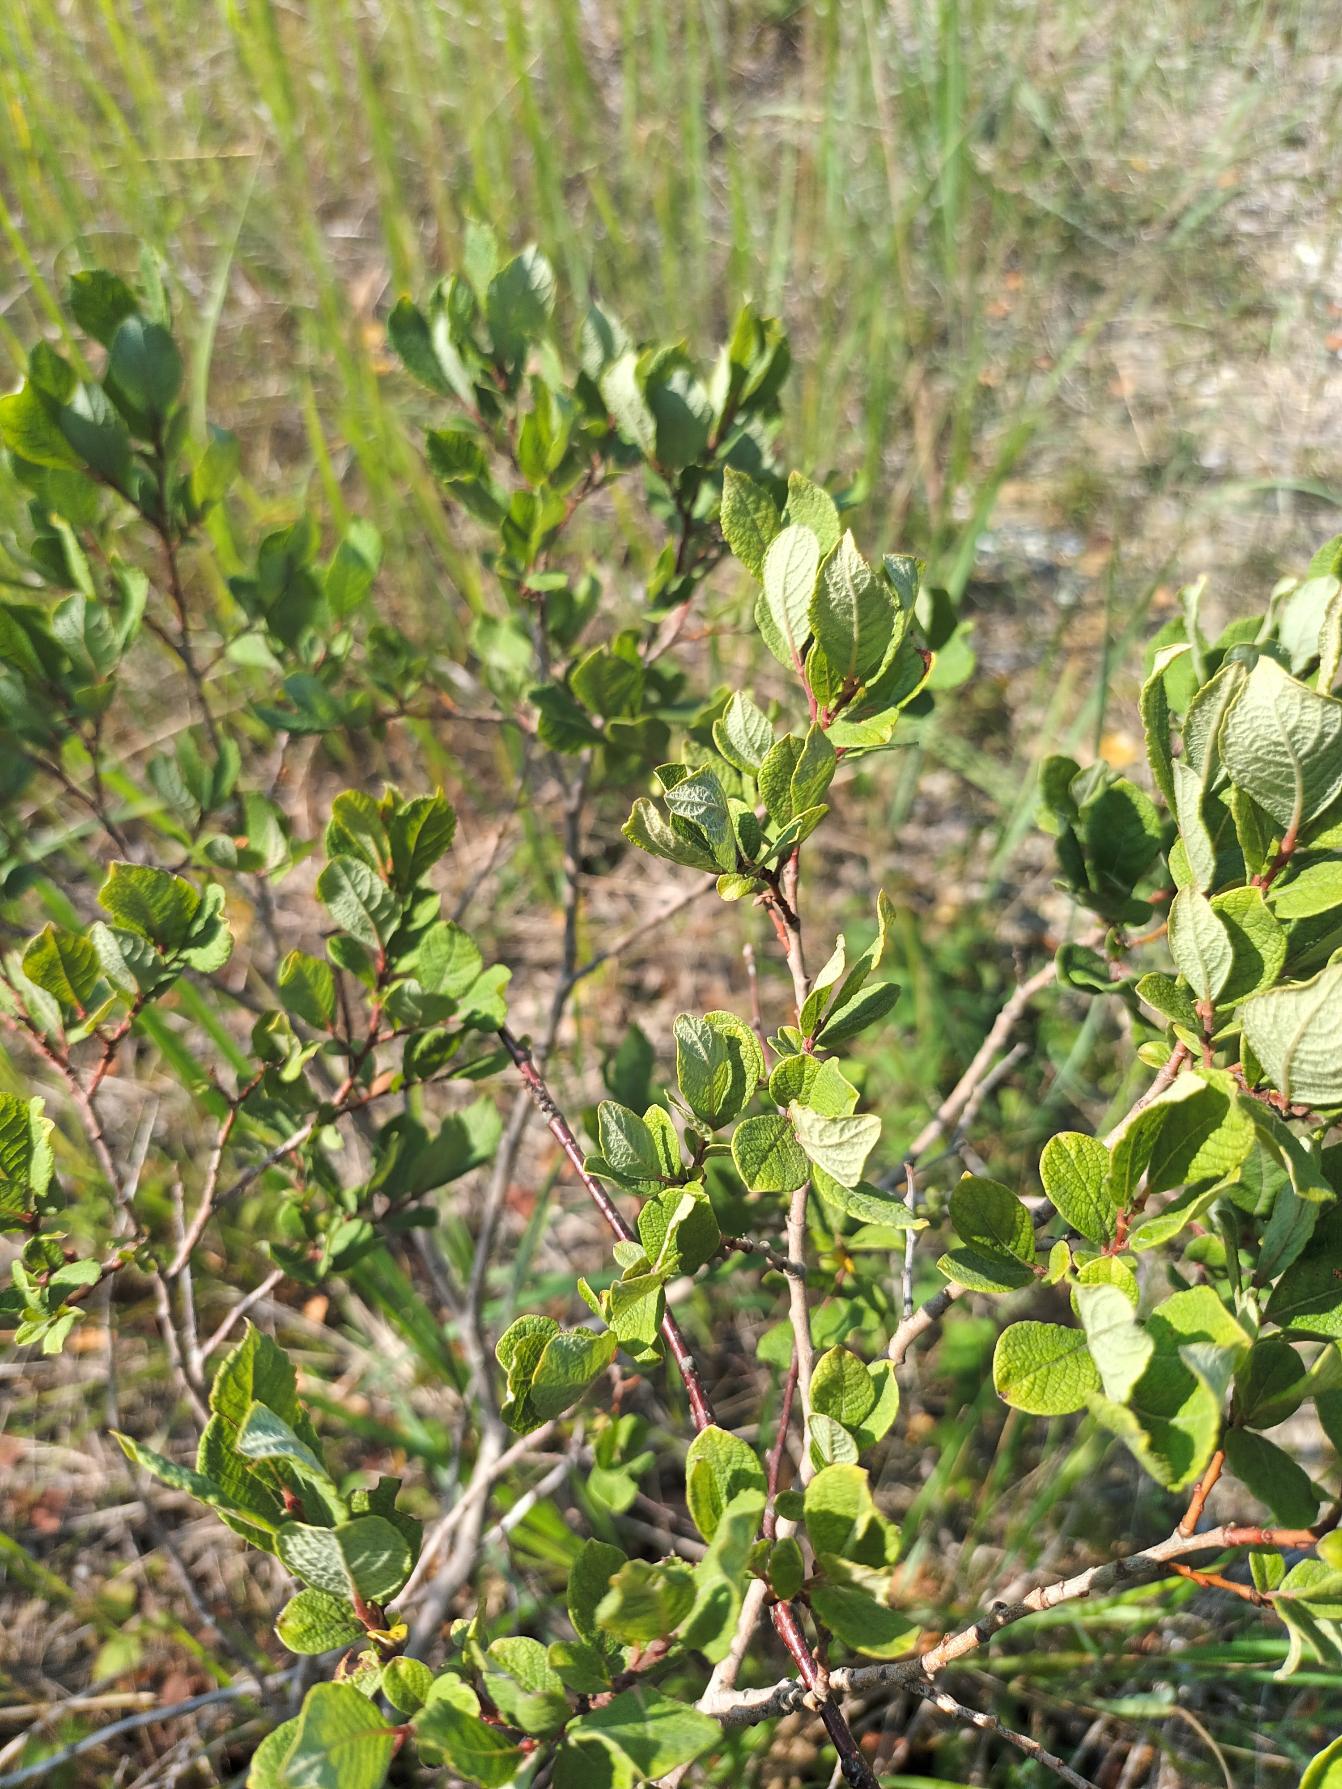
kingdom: Plantae
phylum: Tracheophyta
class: Magnoliopsida
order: Malpighiales
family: Salicaceae
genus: Salix
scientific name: Salix aurita
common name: Øret pil
